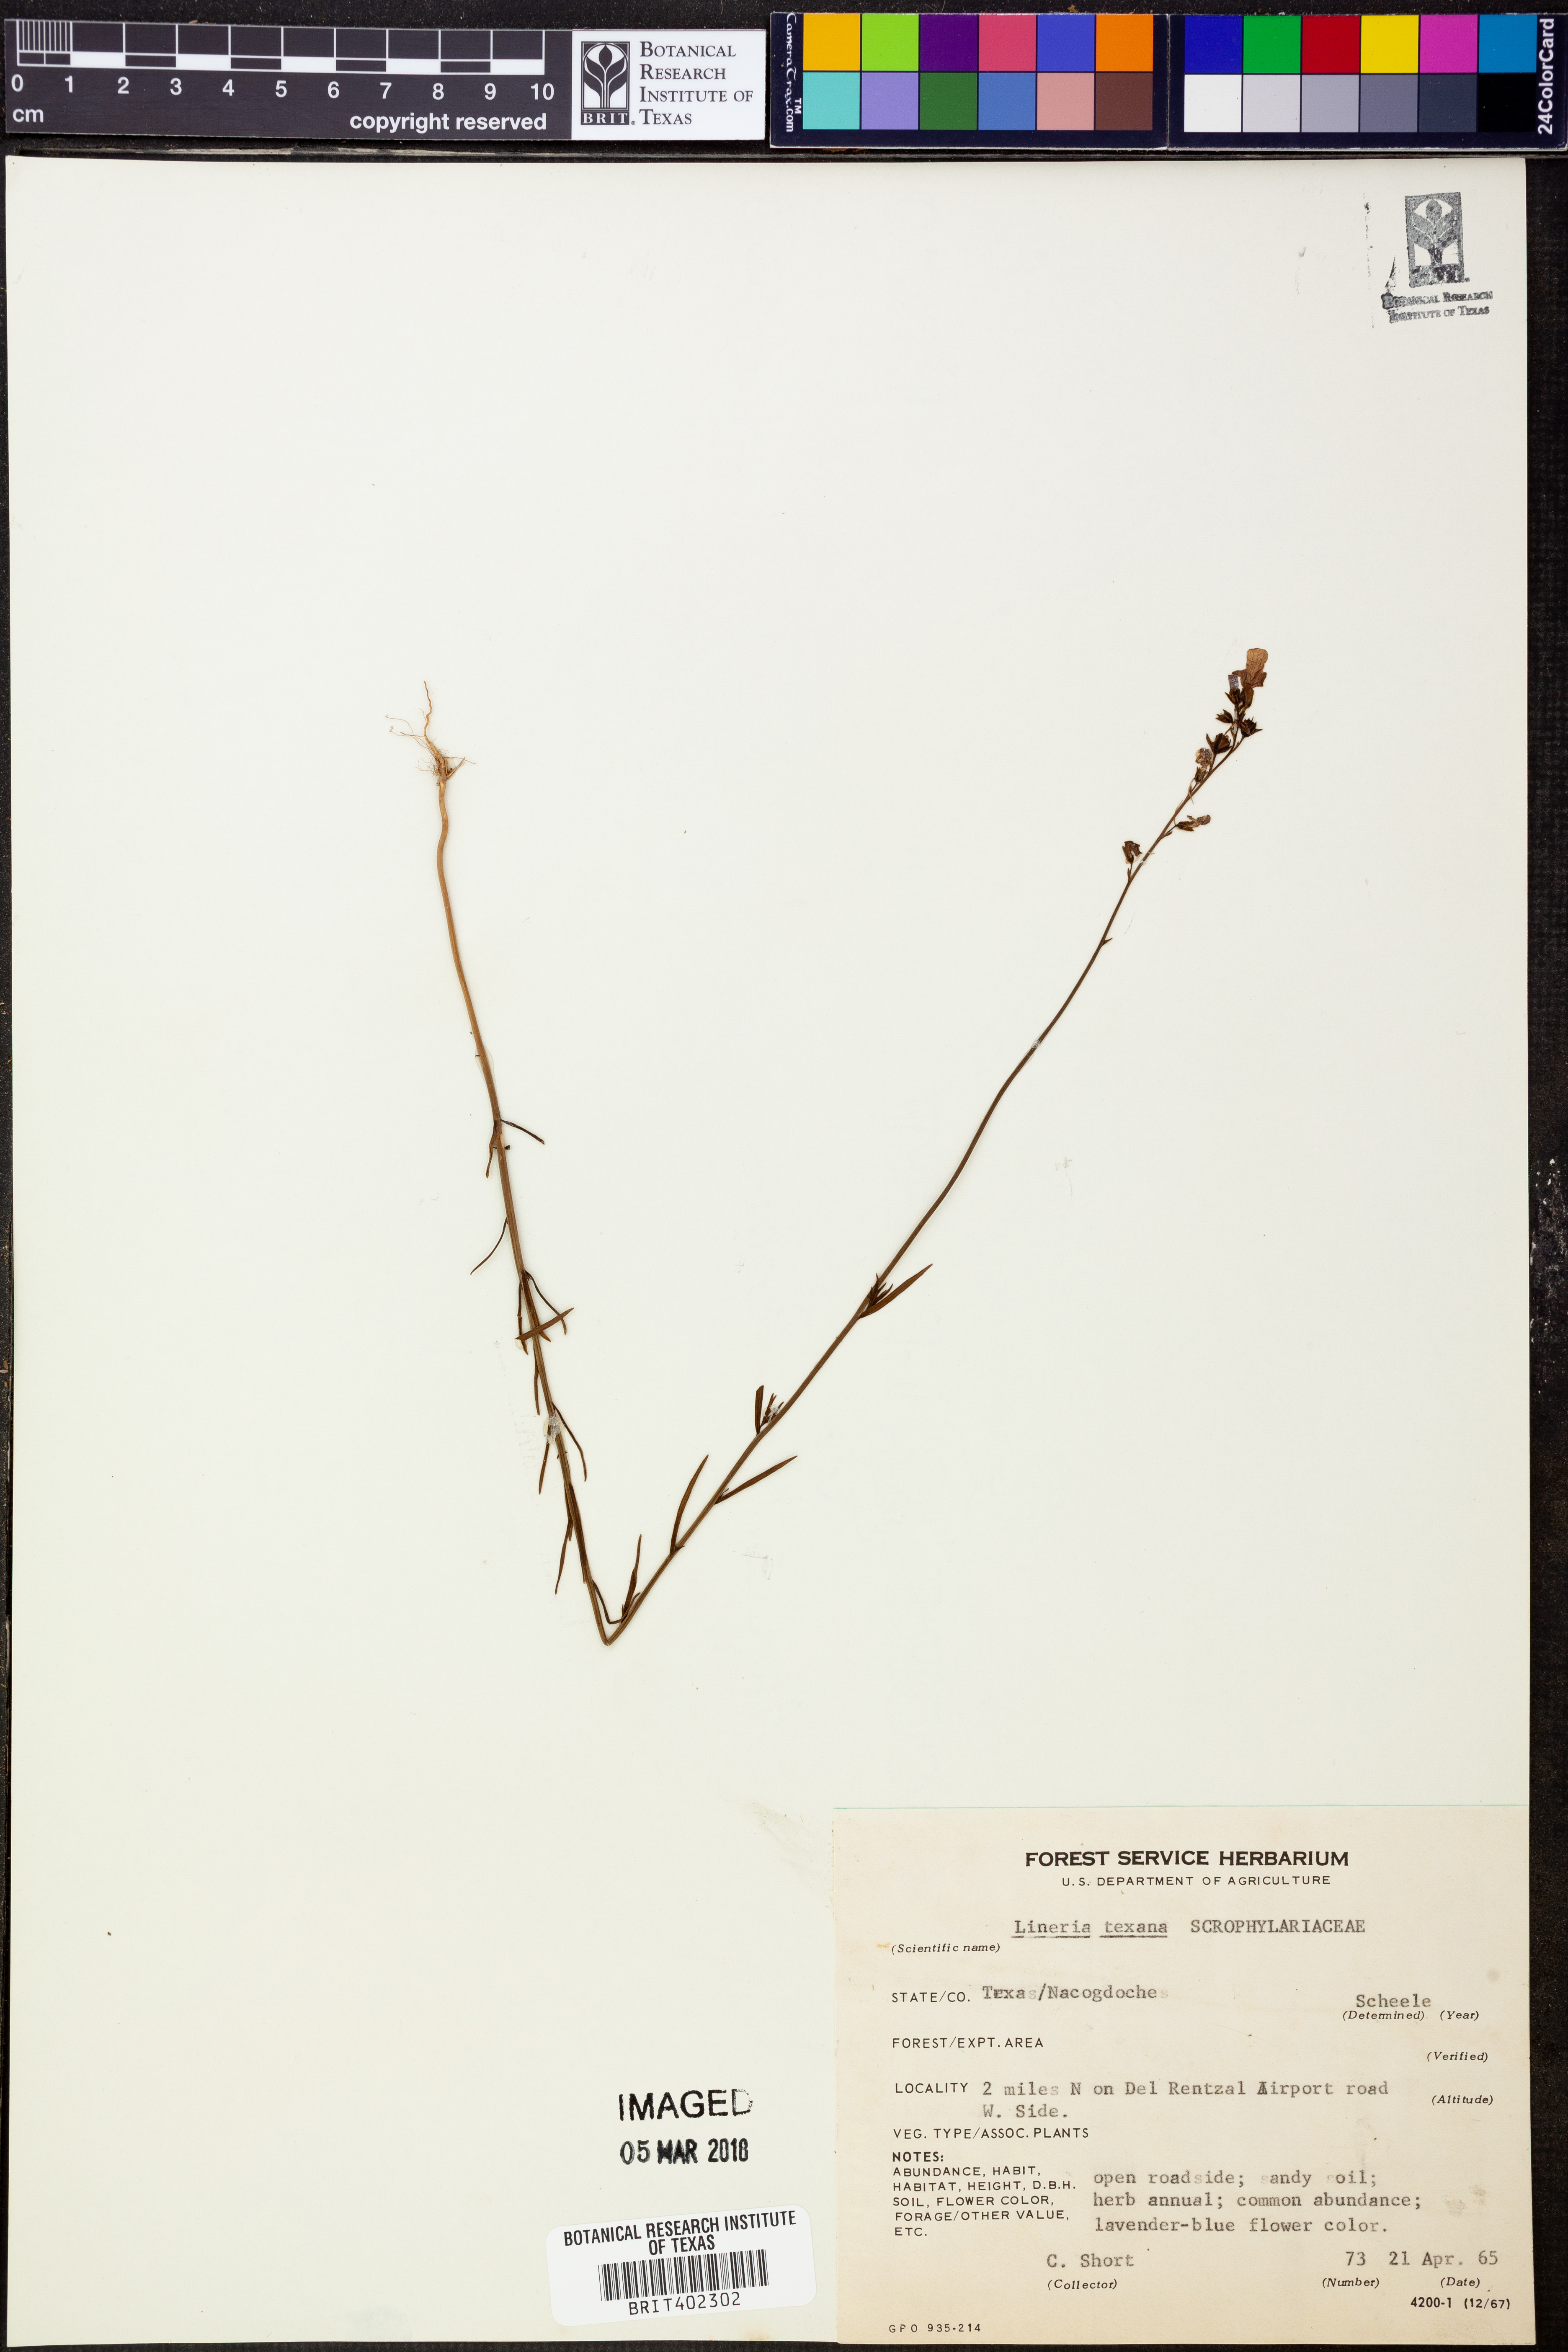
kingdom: Plantae
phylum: Tracheophyta
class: Magnoliopsida
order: Lamiales
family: Plantaginaceae
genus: Nuttallanthus
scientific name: Nuttallanthus texanus
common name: Texas toadflax
